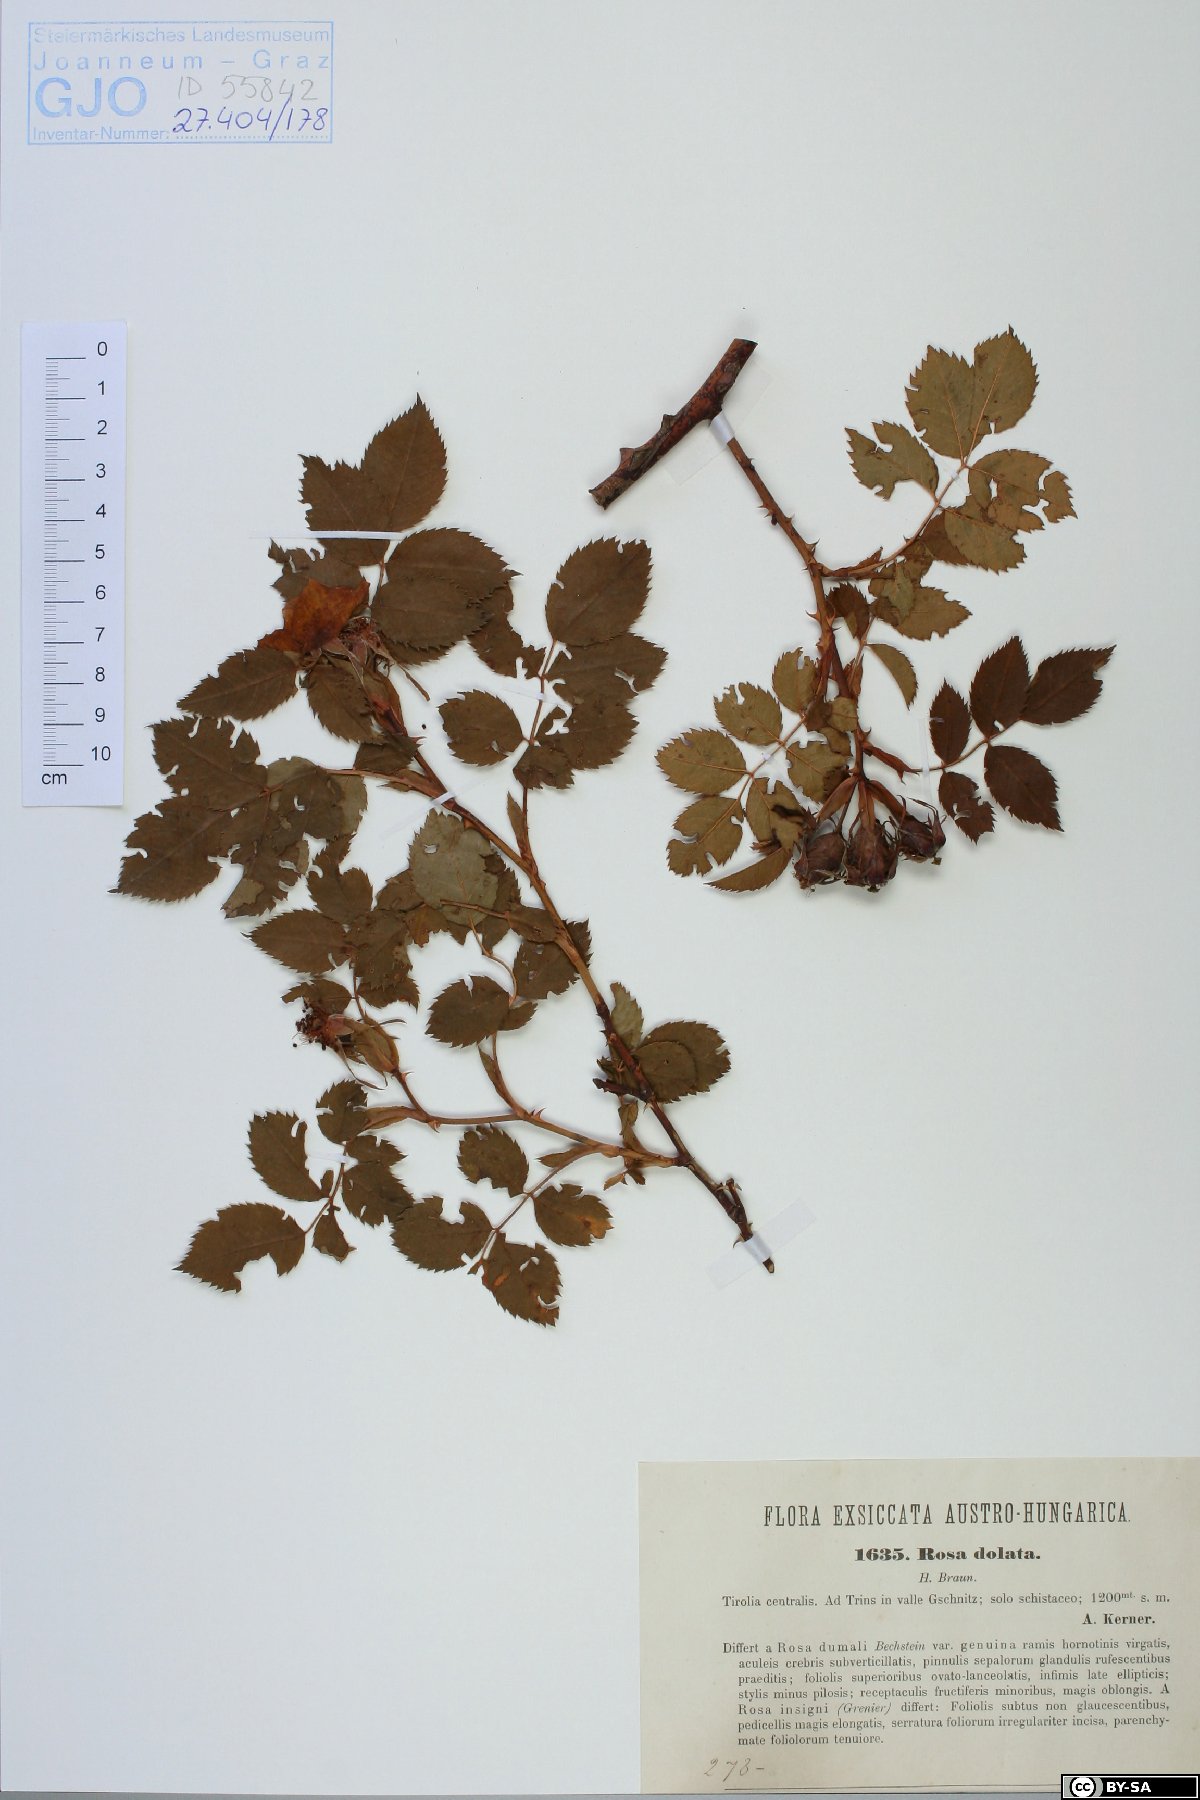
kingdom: Plantae
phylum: Tracheophyta
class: Magnoliopsida
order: Rosales
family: Rosaceae
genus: Rosa
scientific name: Rosa dolata
